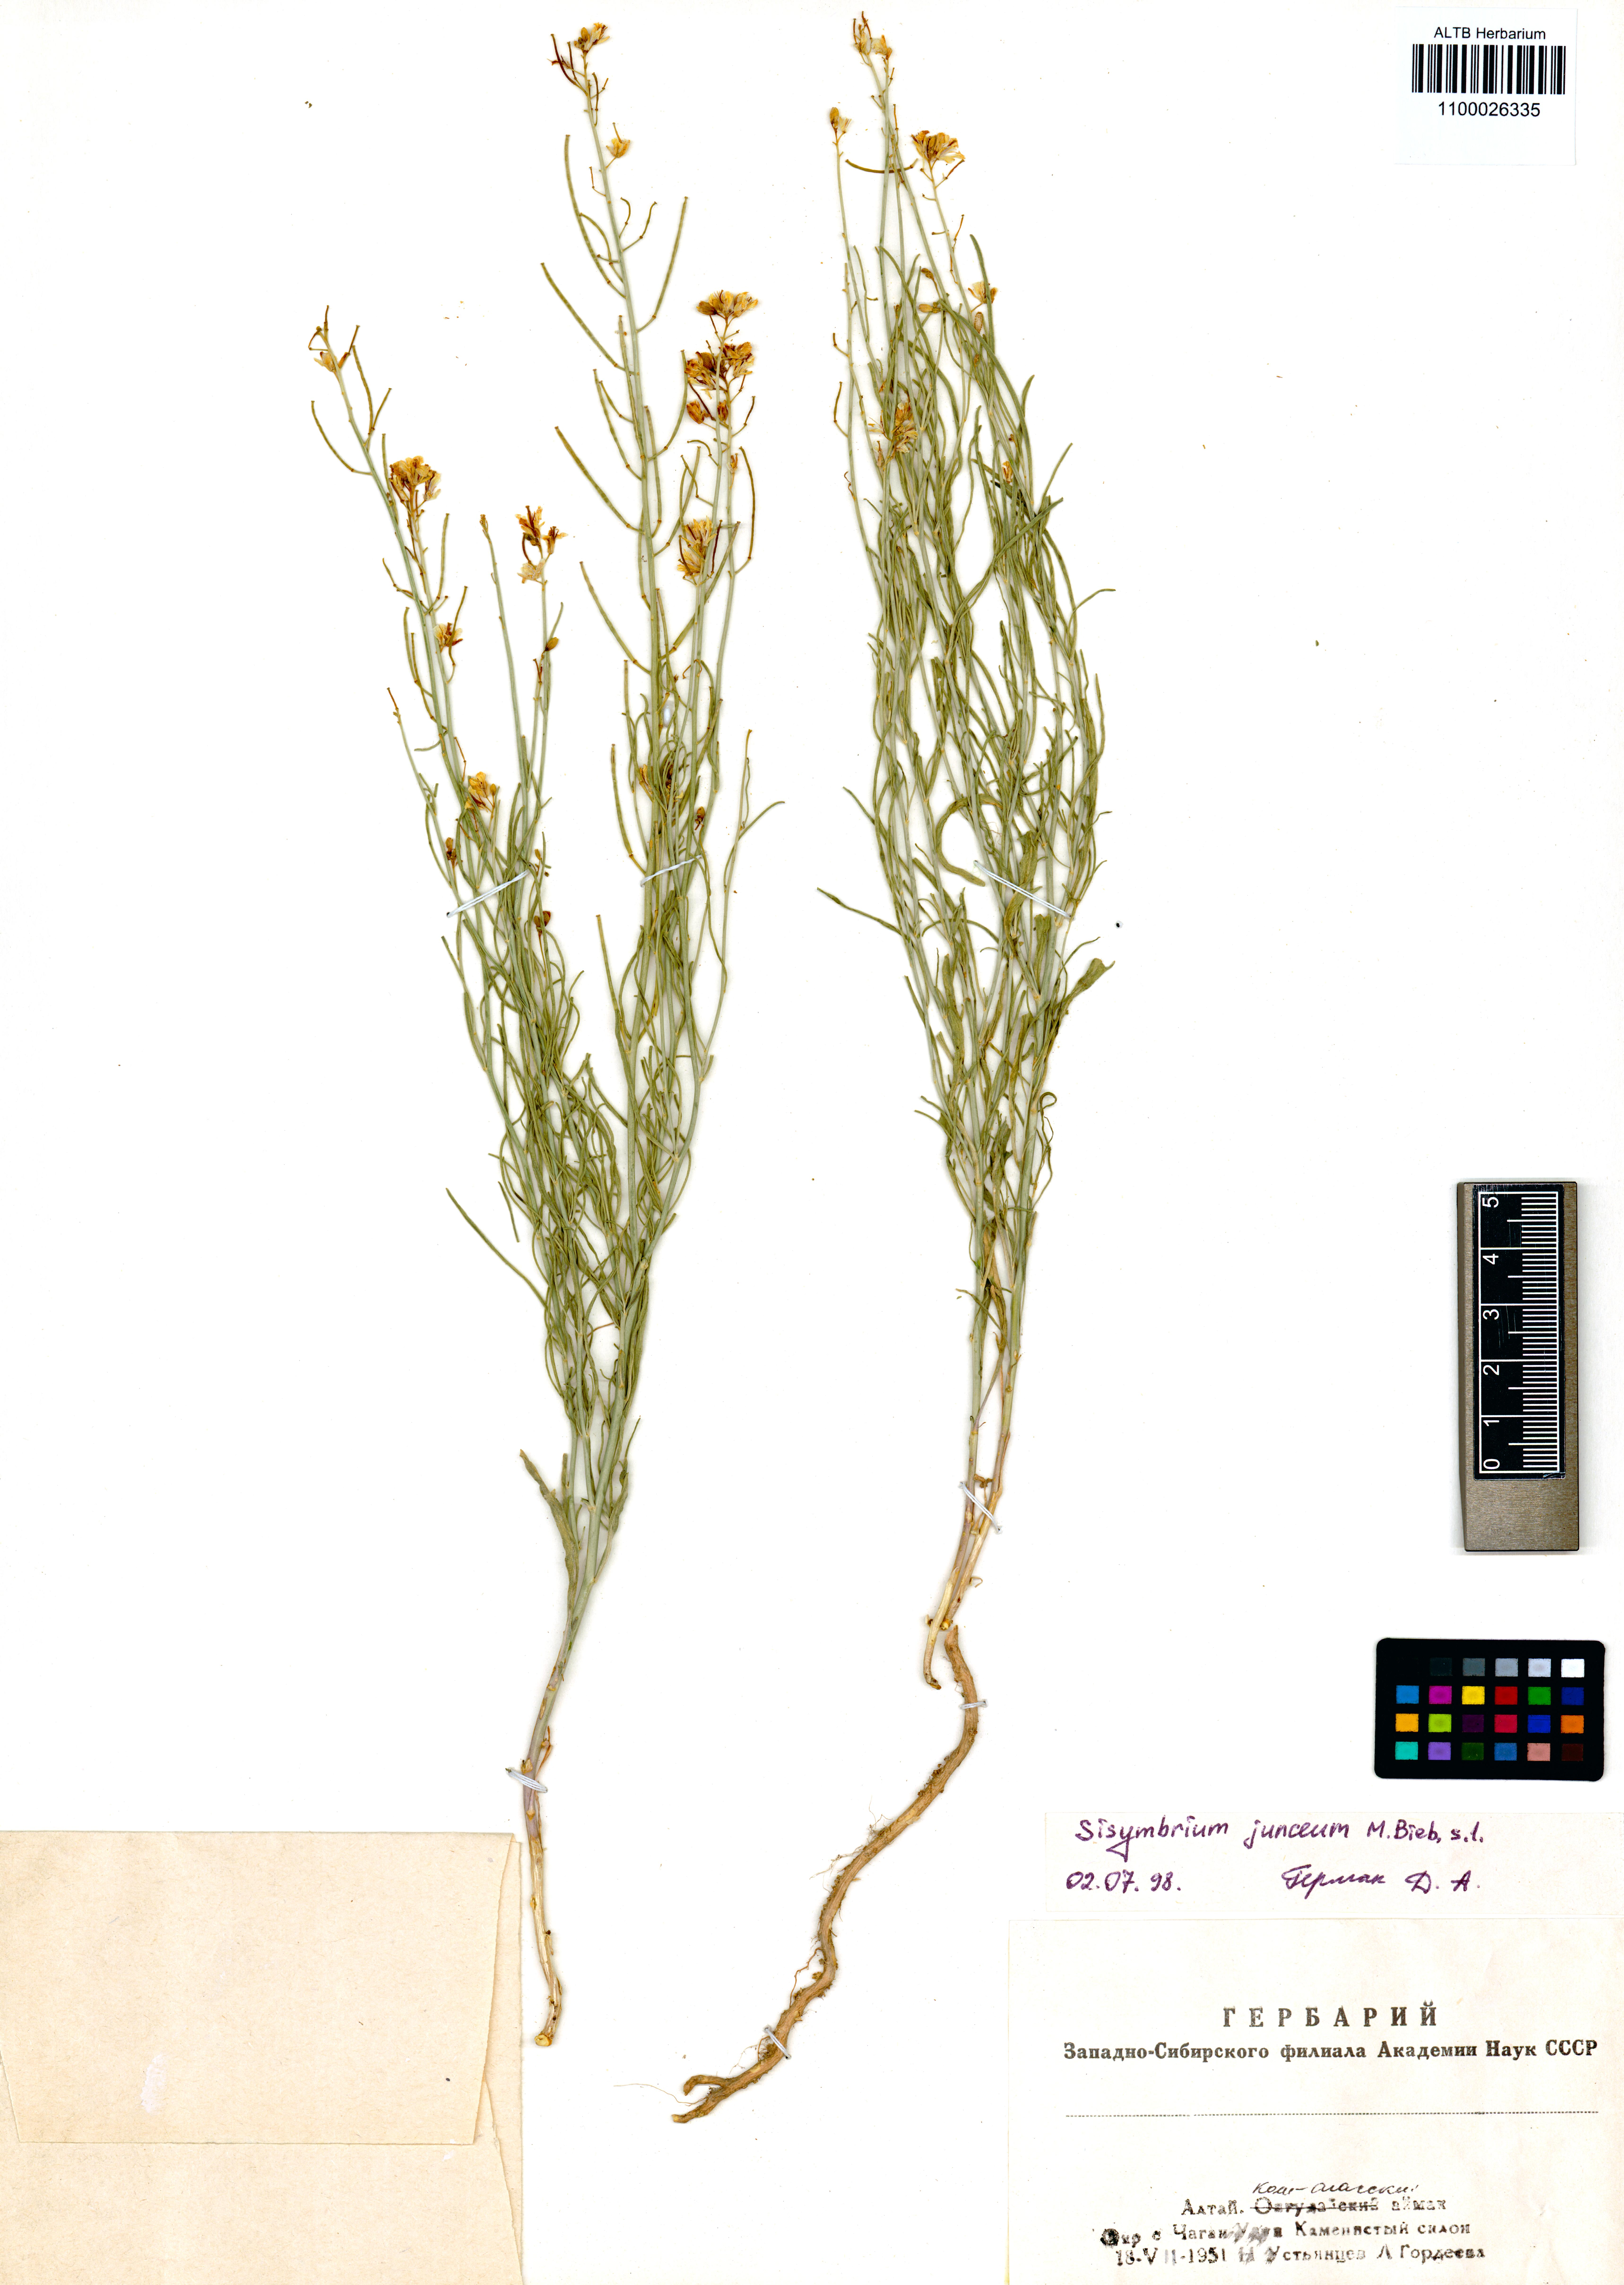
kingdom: Plantae
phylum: Tracheophyta
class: Magnoliopsida
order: Brassicales
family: Brassicaceae
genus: Sisymbrium
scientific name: Sisymbrium polymorphum
